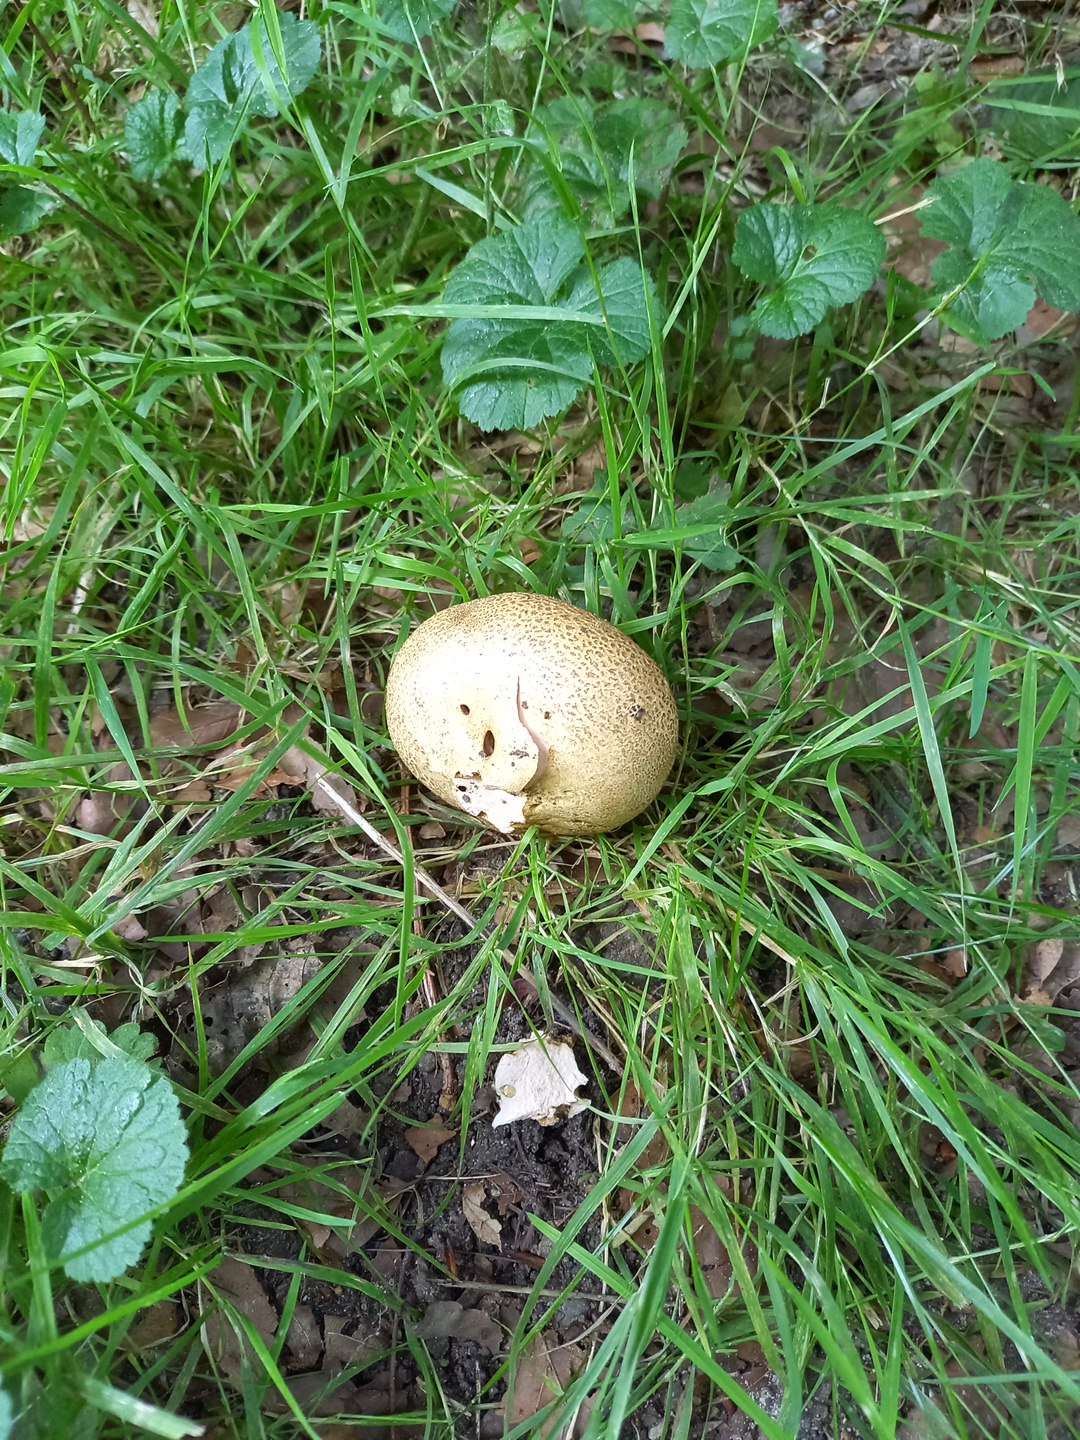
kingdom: Fungi
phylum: Basidiomycota
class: Agaricomycetes
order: Boletales
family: Sclerodermataceae
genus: Scleroderma
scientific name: Scleroderma
